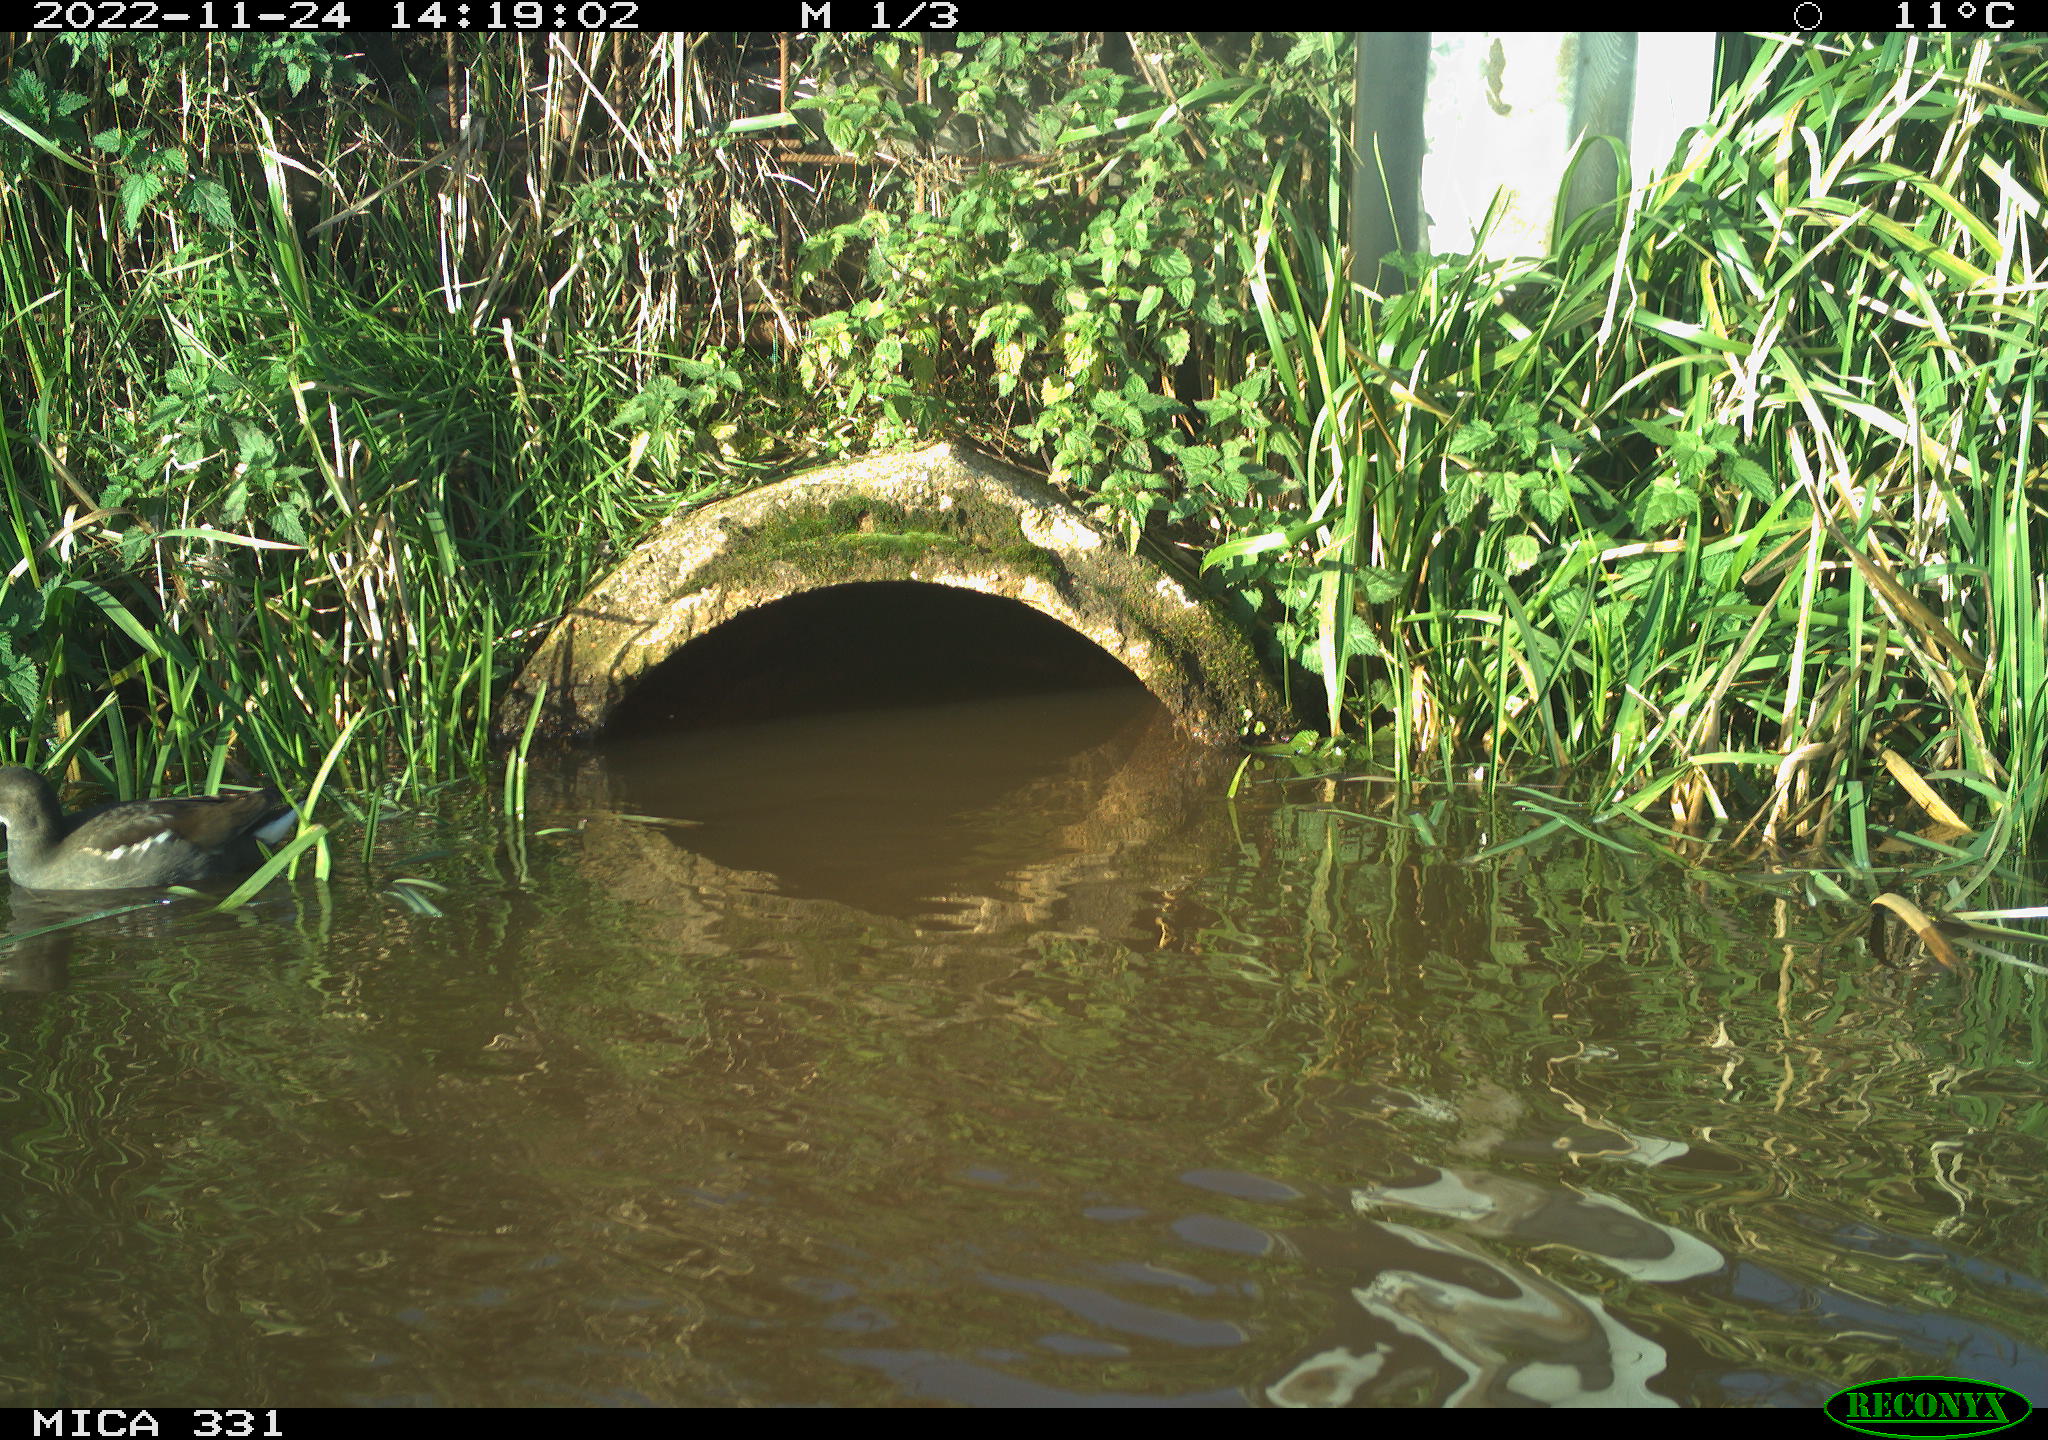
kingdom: Animalia
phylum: Chordata
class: Aves
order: Gruiformes
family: Rallidae
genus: Gallinula
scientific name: Gallinula chloropus
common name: Common moorhen
